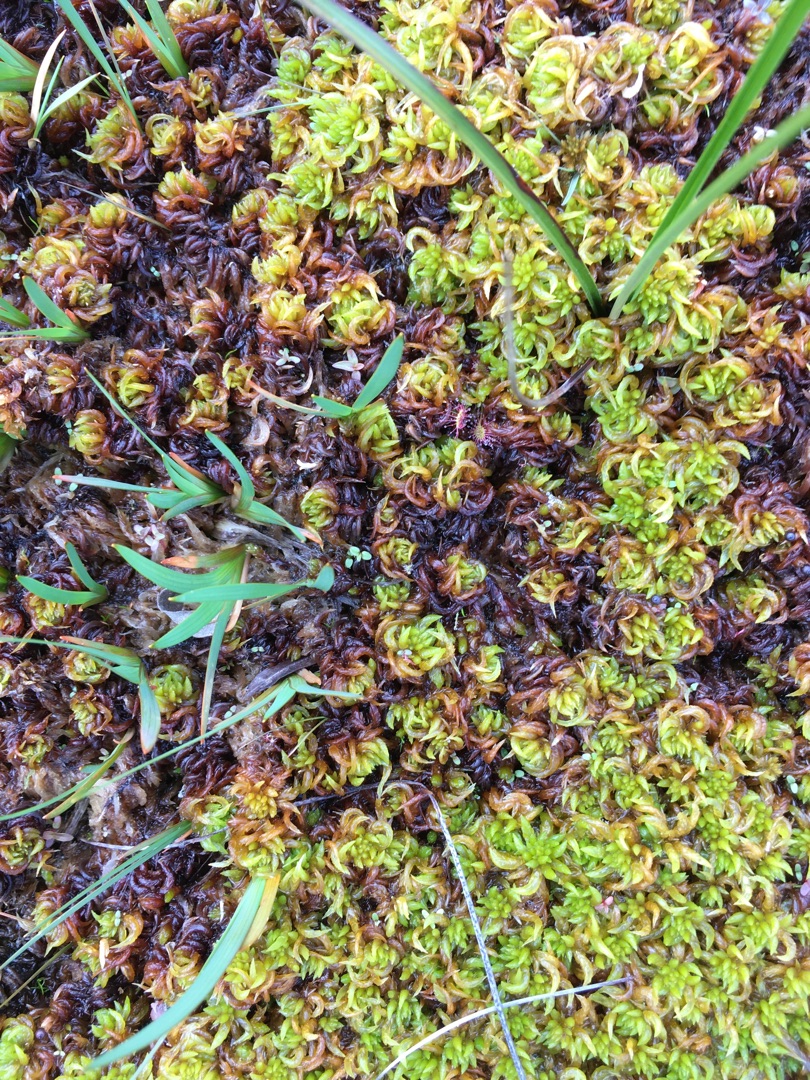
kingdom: Plantae
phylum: Bryophyta
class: Sphagnopsida
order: Sphagnales
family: Sphagnaceae
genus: Sphagnum
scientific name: Sphagnum denticulatum
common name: Rødbrun tørvemos
